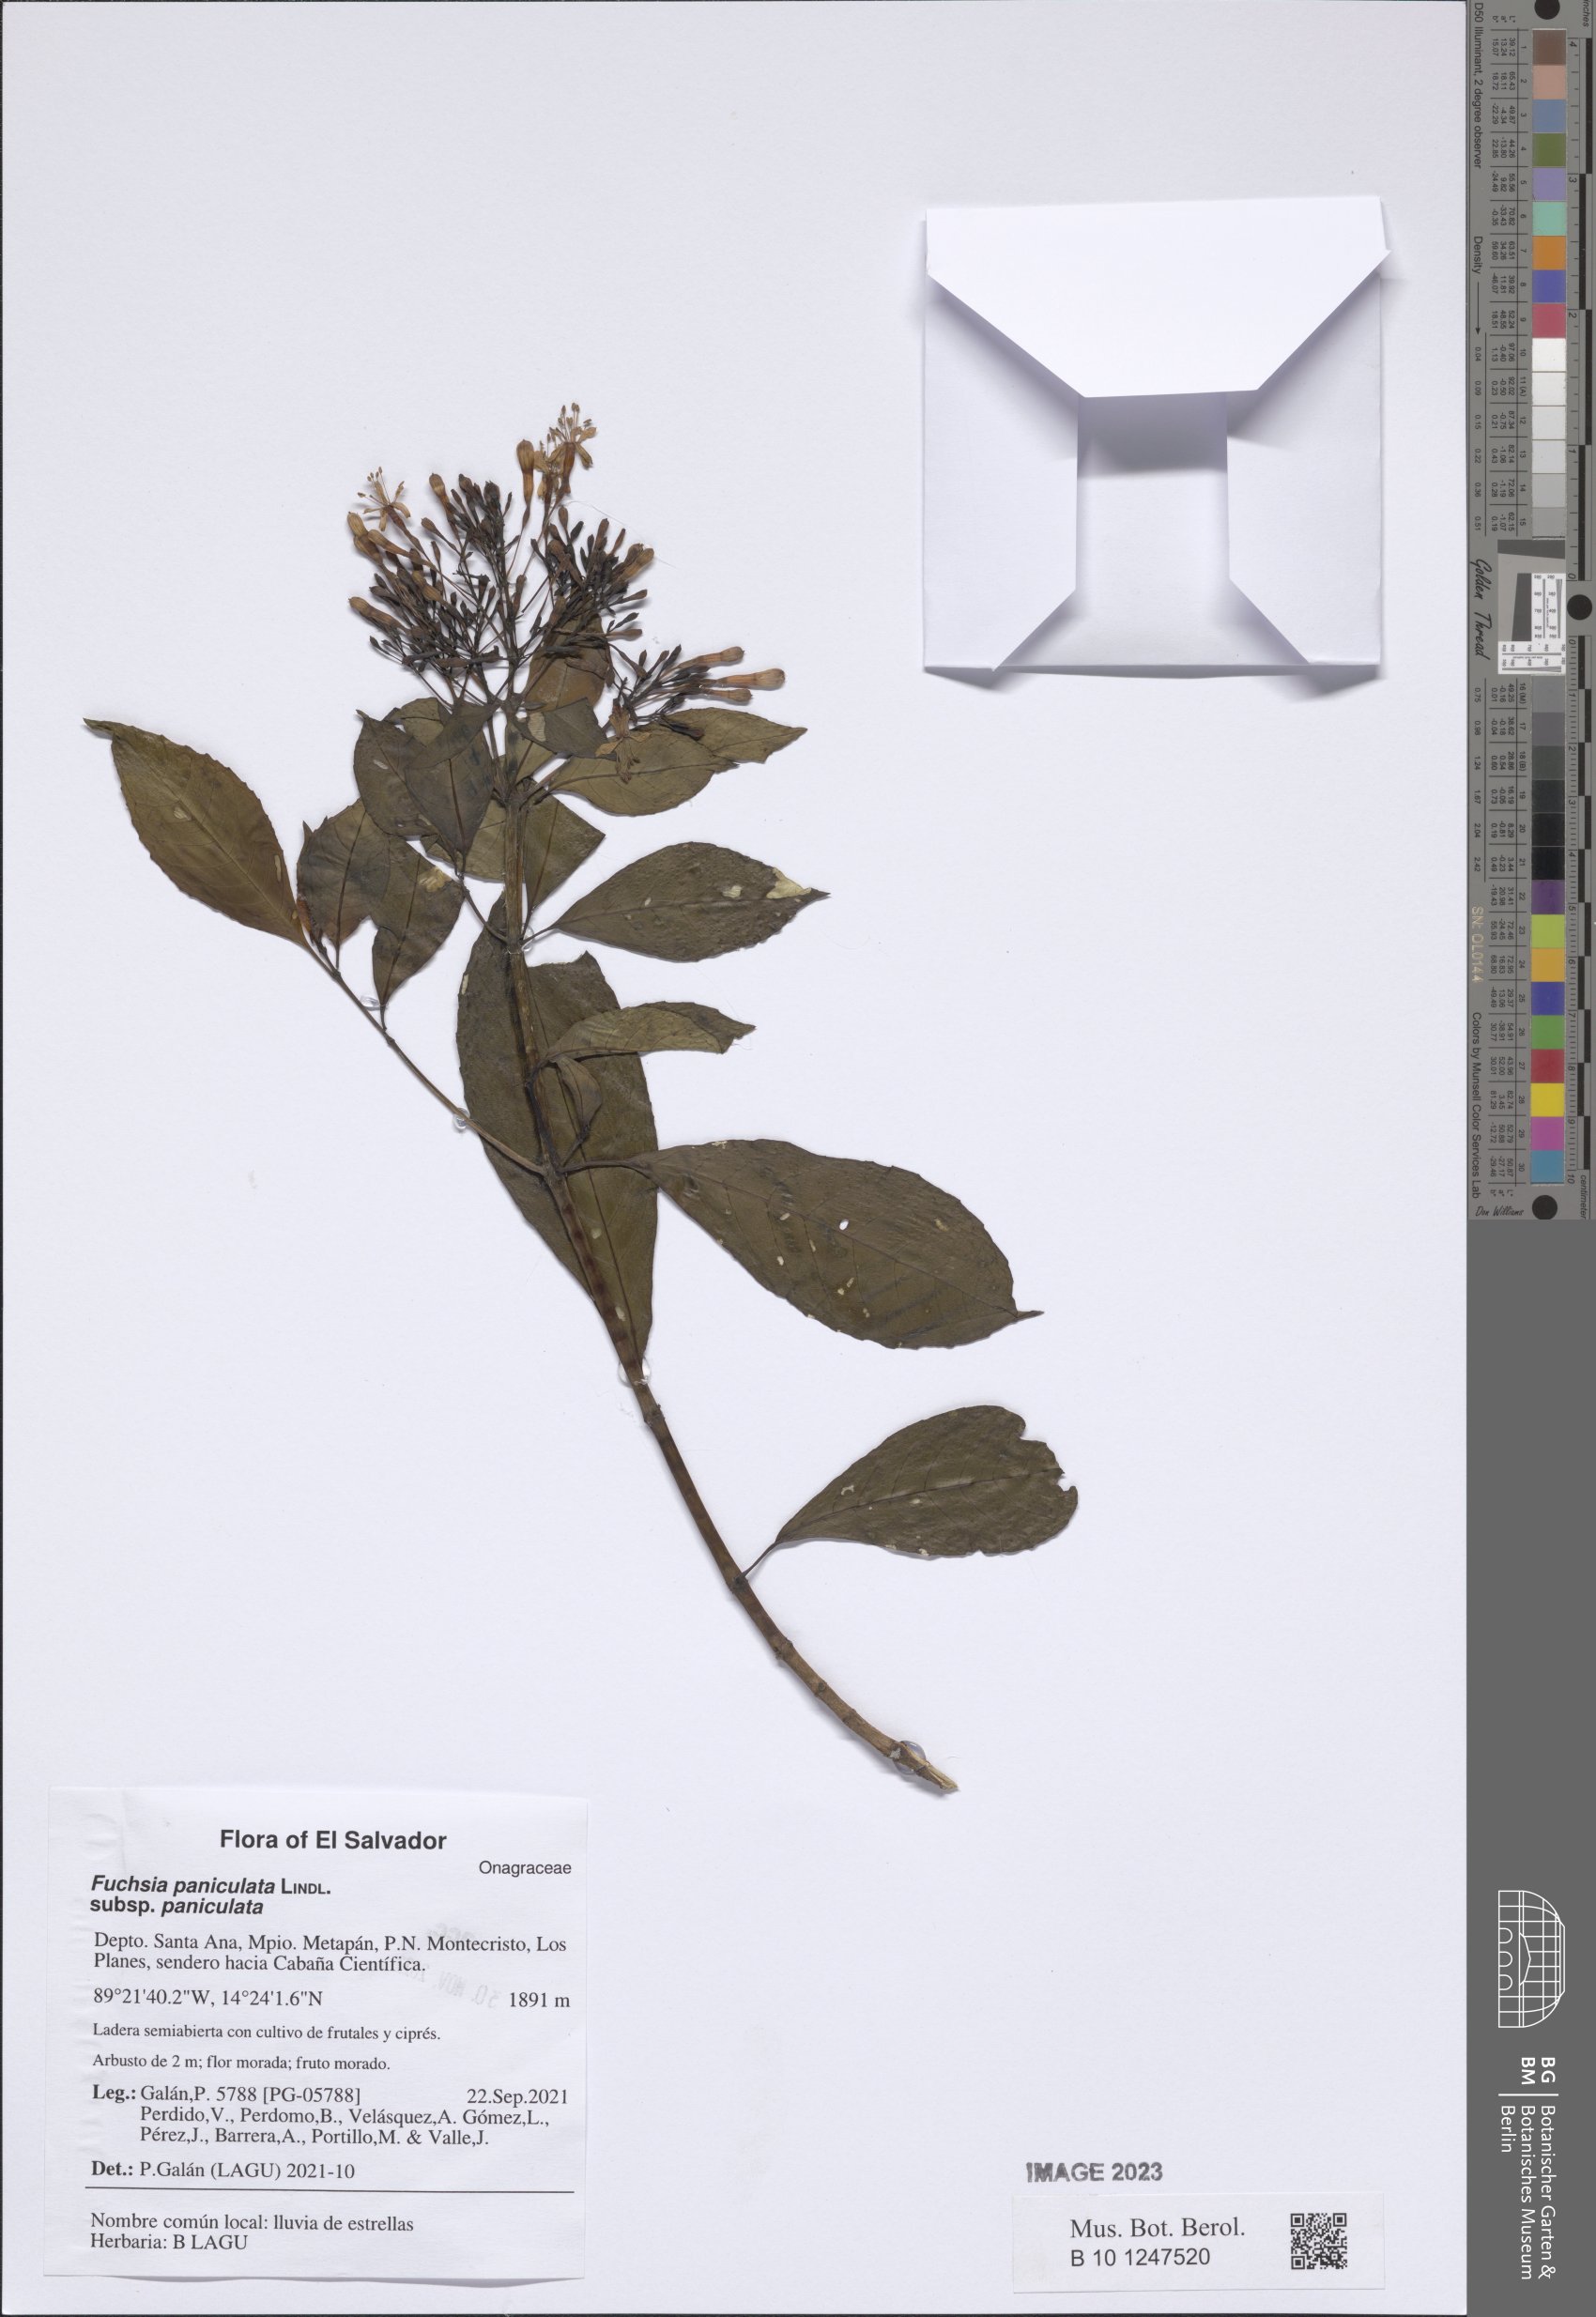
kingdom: Plantae
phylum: Tracheophyta
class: Magnoliopsida
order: Myrtales
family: Onagraceae
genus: Fuchsia
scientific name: Fuchsia paniculata
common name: Shrubby fuchsia
